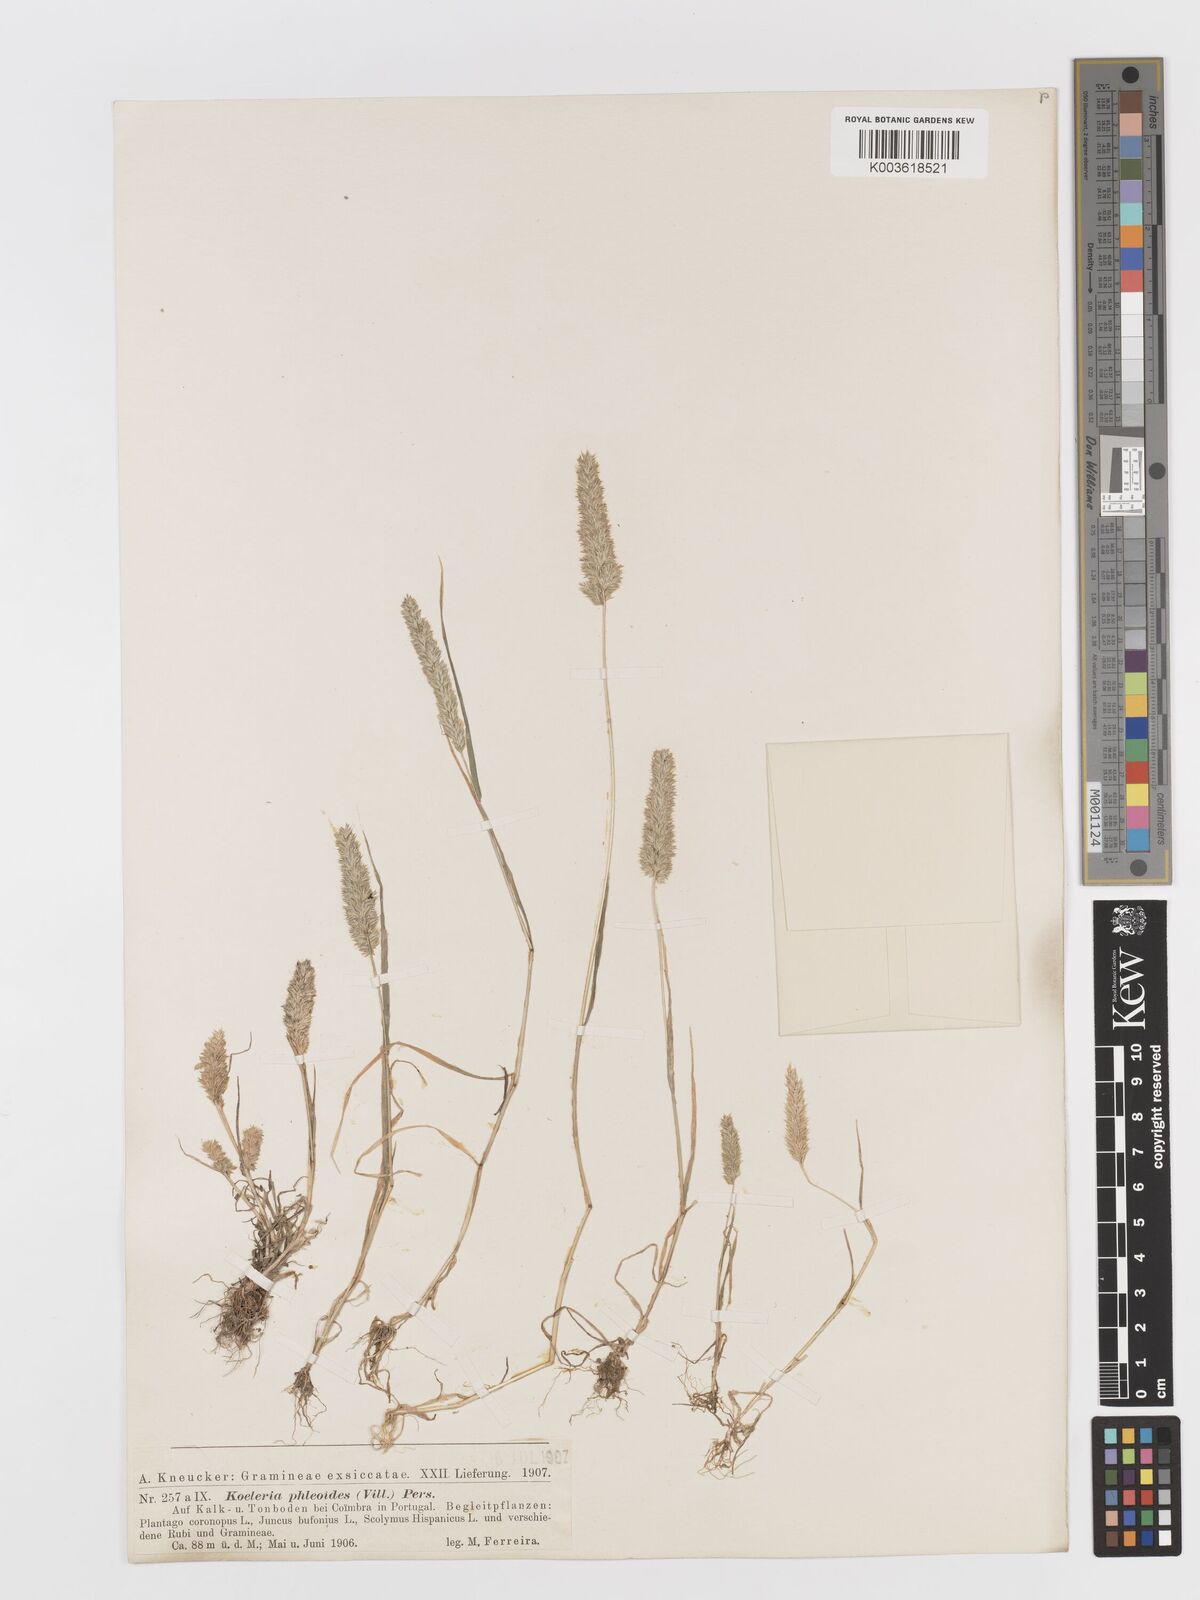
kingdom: Plantae
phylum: Tracheophyta
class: Liliopsida
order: Poales
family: Poaceae
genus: Rostraria
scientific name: Rostraria cristata
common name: Mediterranean hair-grass
